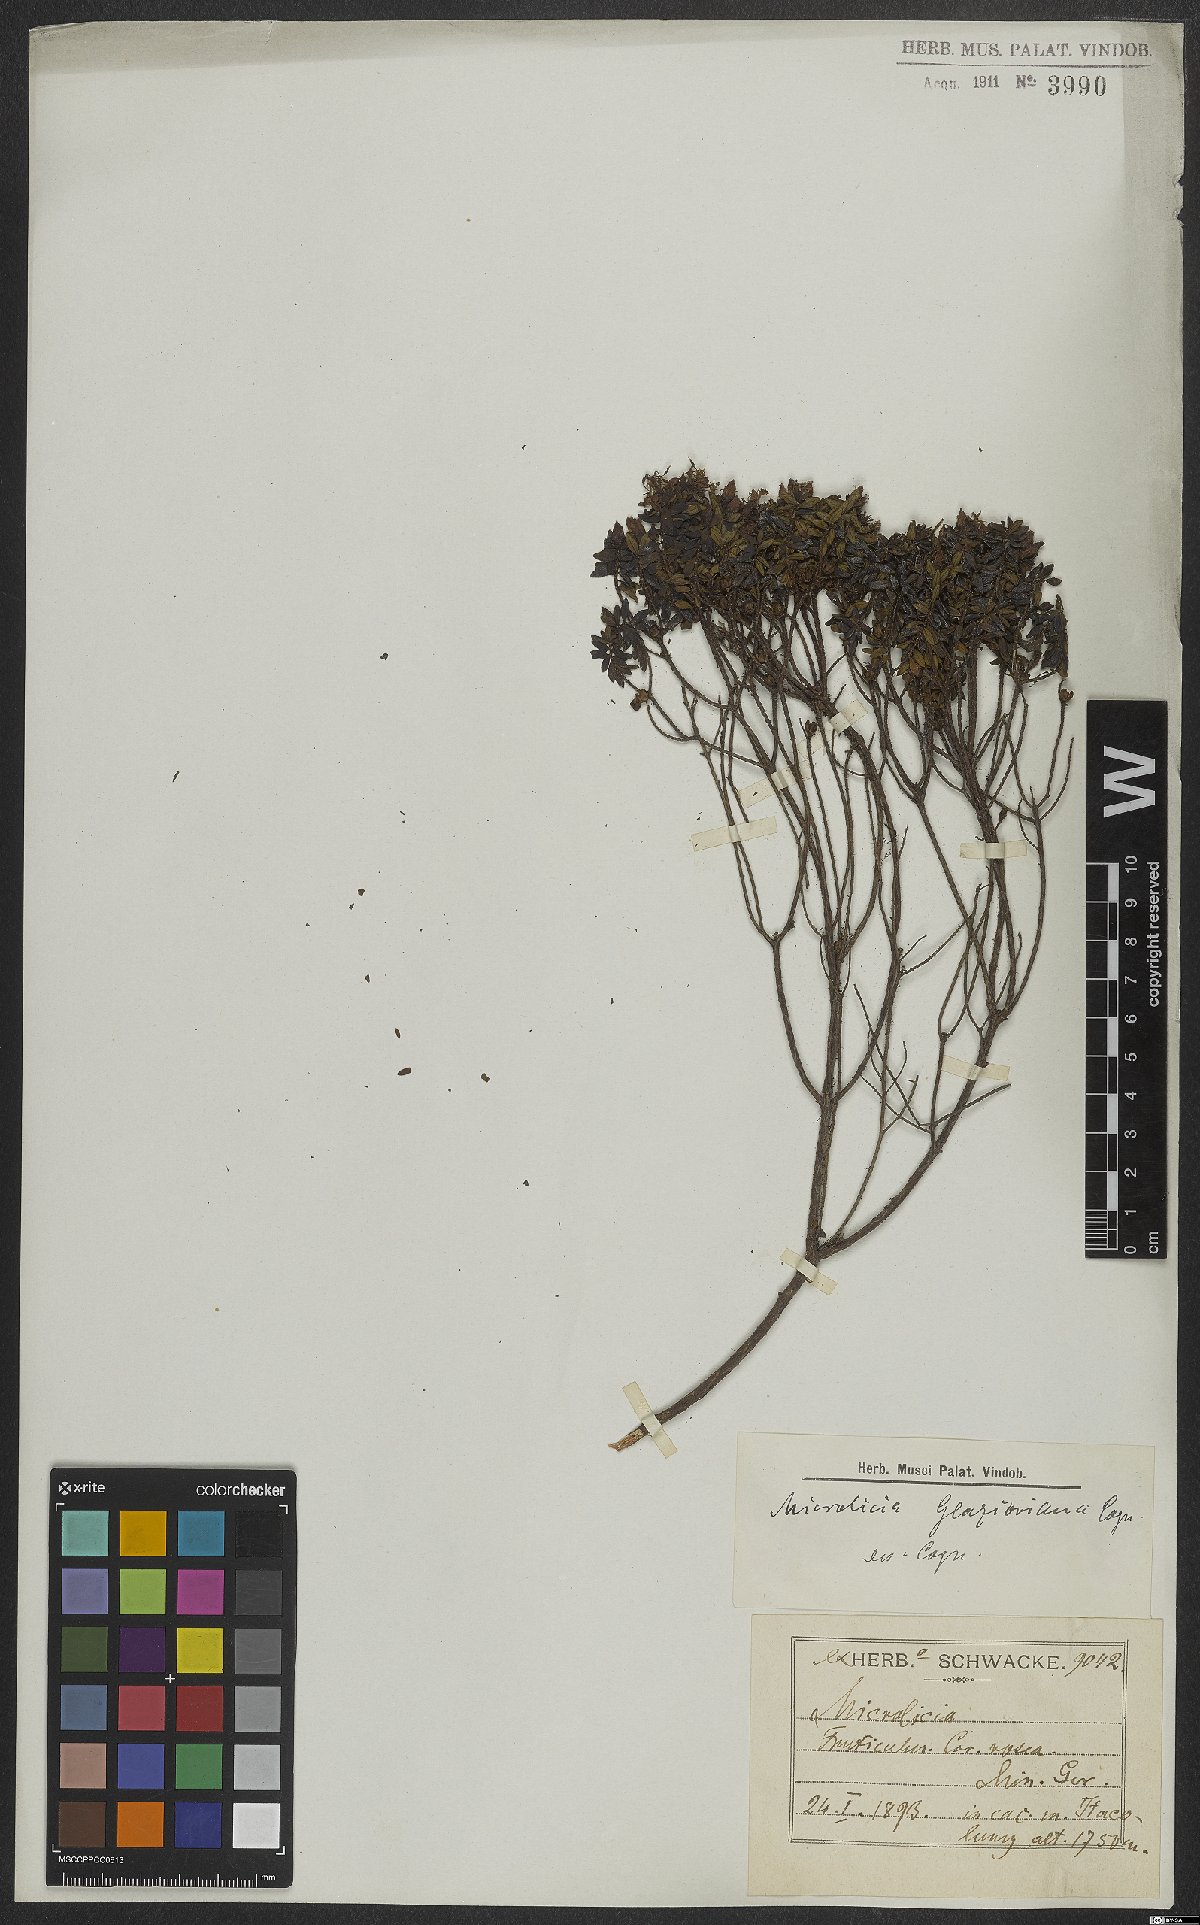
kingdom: Plantae
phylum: Tracheophyta
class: Magnoliopsida
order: Myrtales
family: Melastomataceae
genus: Microlicia
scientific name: Microlicia glazioviana
